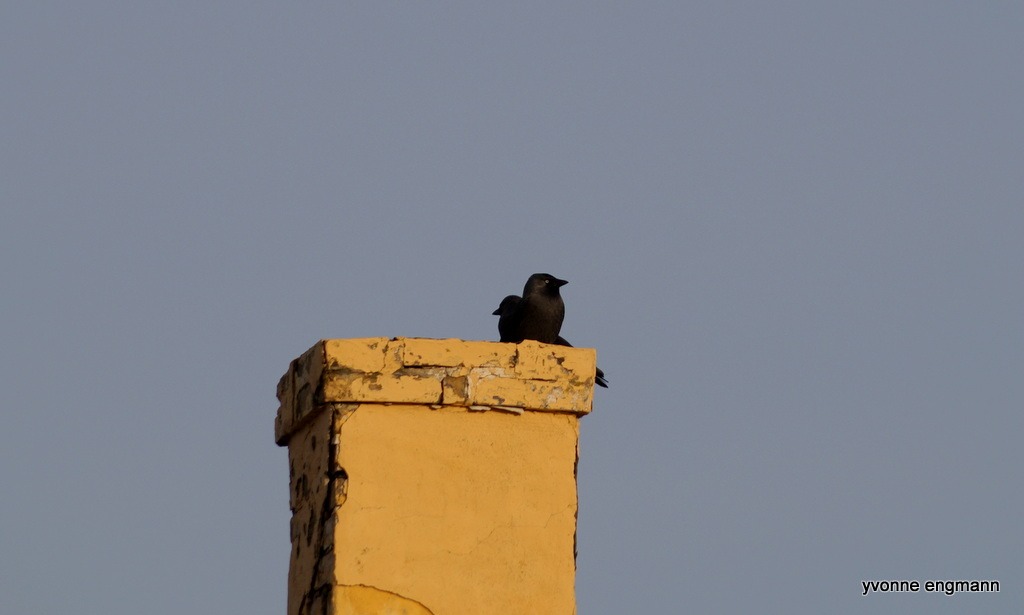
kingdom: Animalia
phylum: Chordata
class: Aves
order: Passeriformes
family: Corvidae
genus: Coloeus
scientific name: Coloeus monedula
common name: Allike
